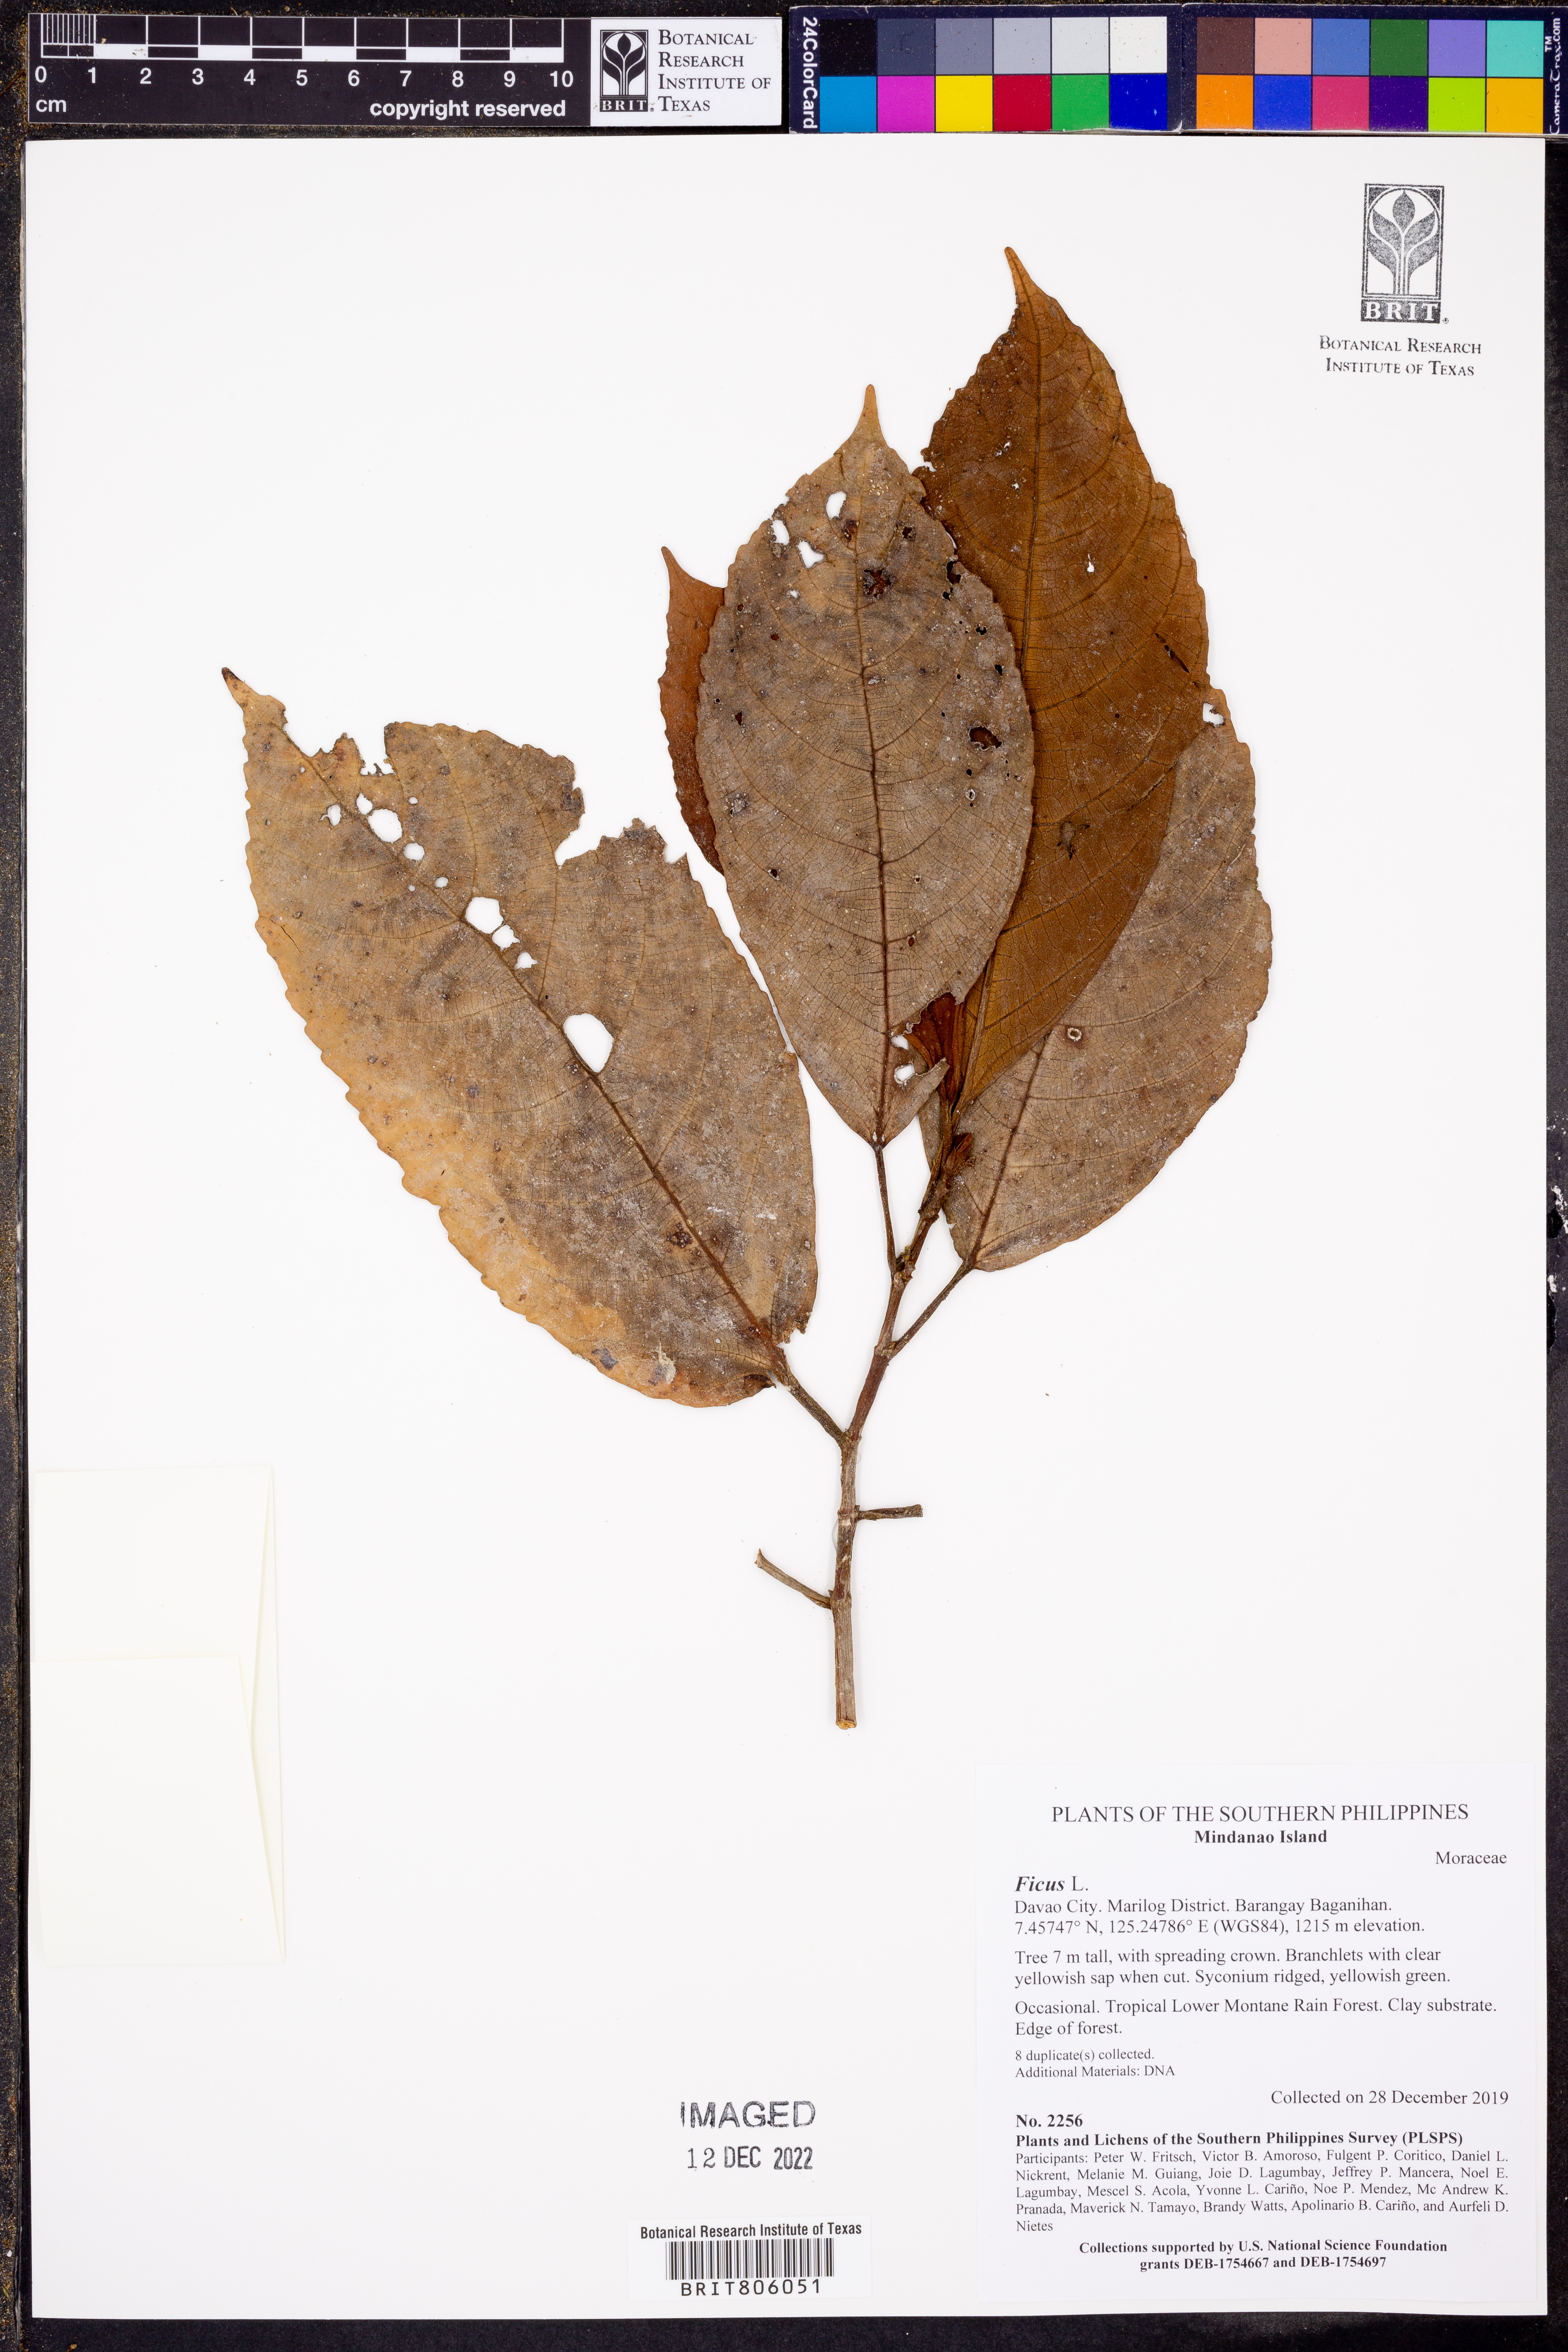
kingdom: Plantae
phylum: Tracheophyta
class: Magnoliopsida
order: Rosales
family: Moraceae
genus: Ficus
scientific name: Ficus
